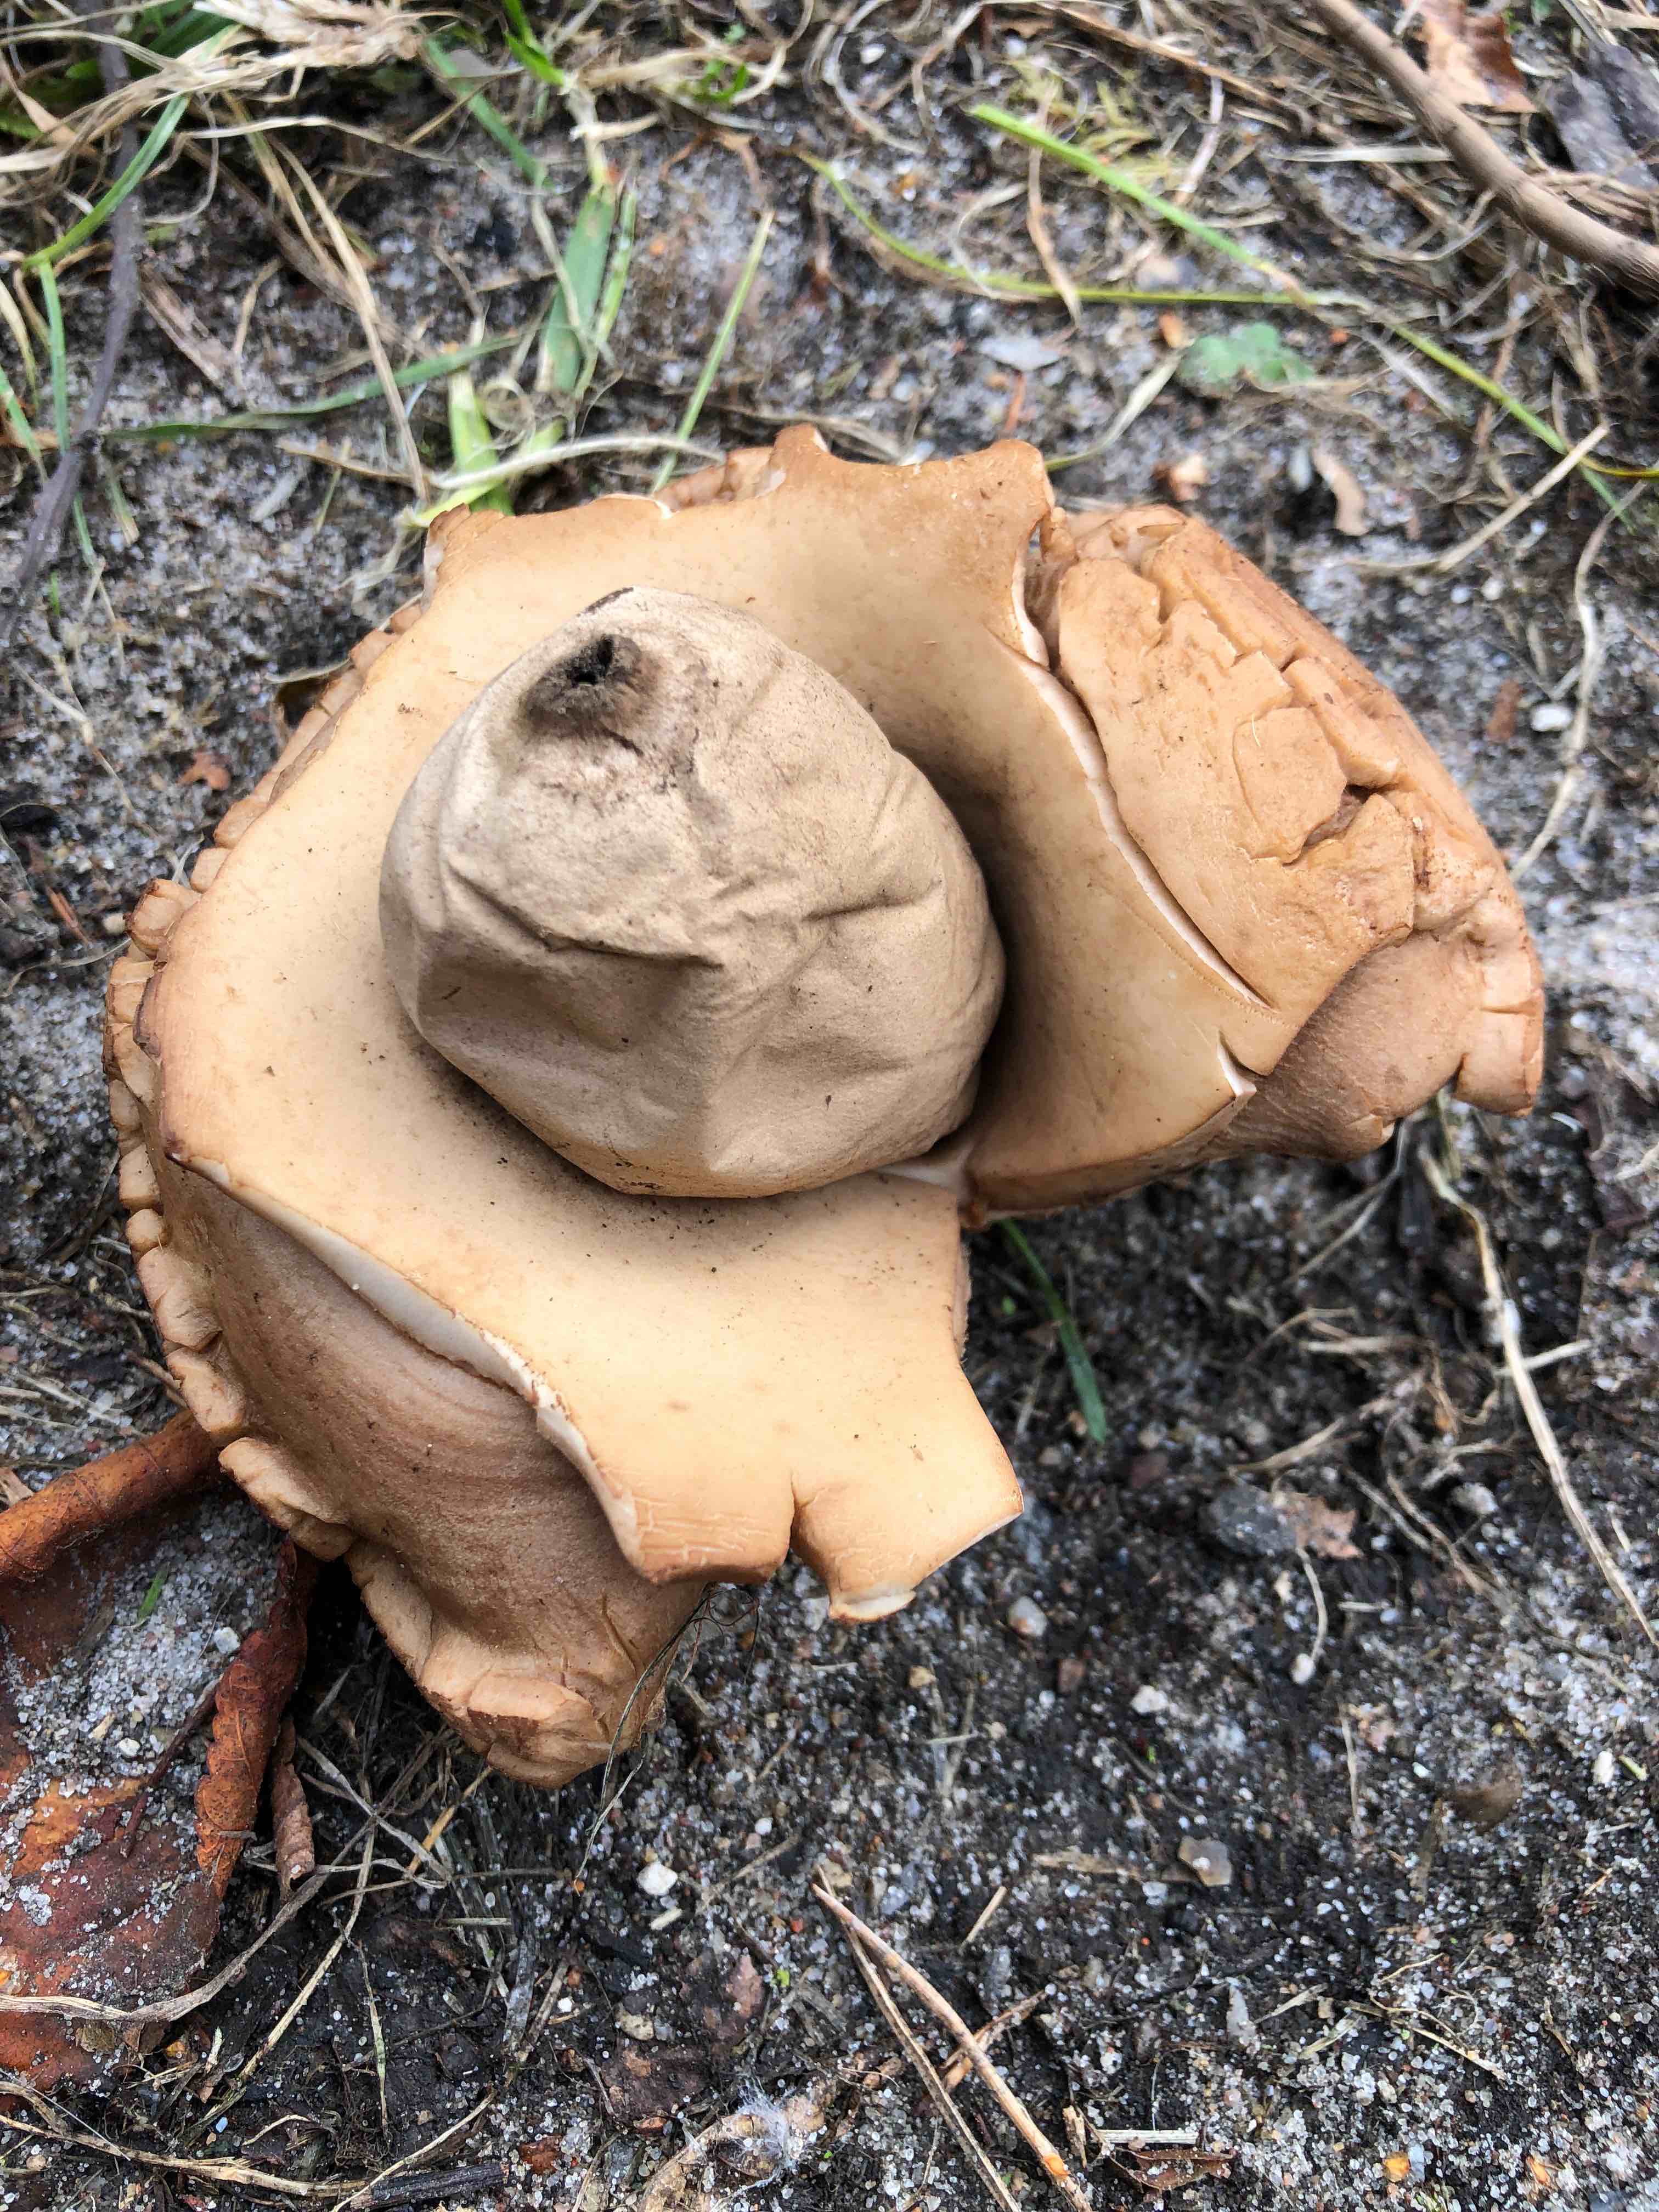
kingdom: Fungi
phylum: Basidiomycota
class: Agaricomycetes
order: Geastrales
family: Geastraceae
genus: Geastrum
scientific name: Geastrum michelianum
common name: kødet stjernebold
